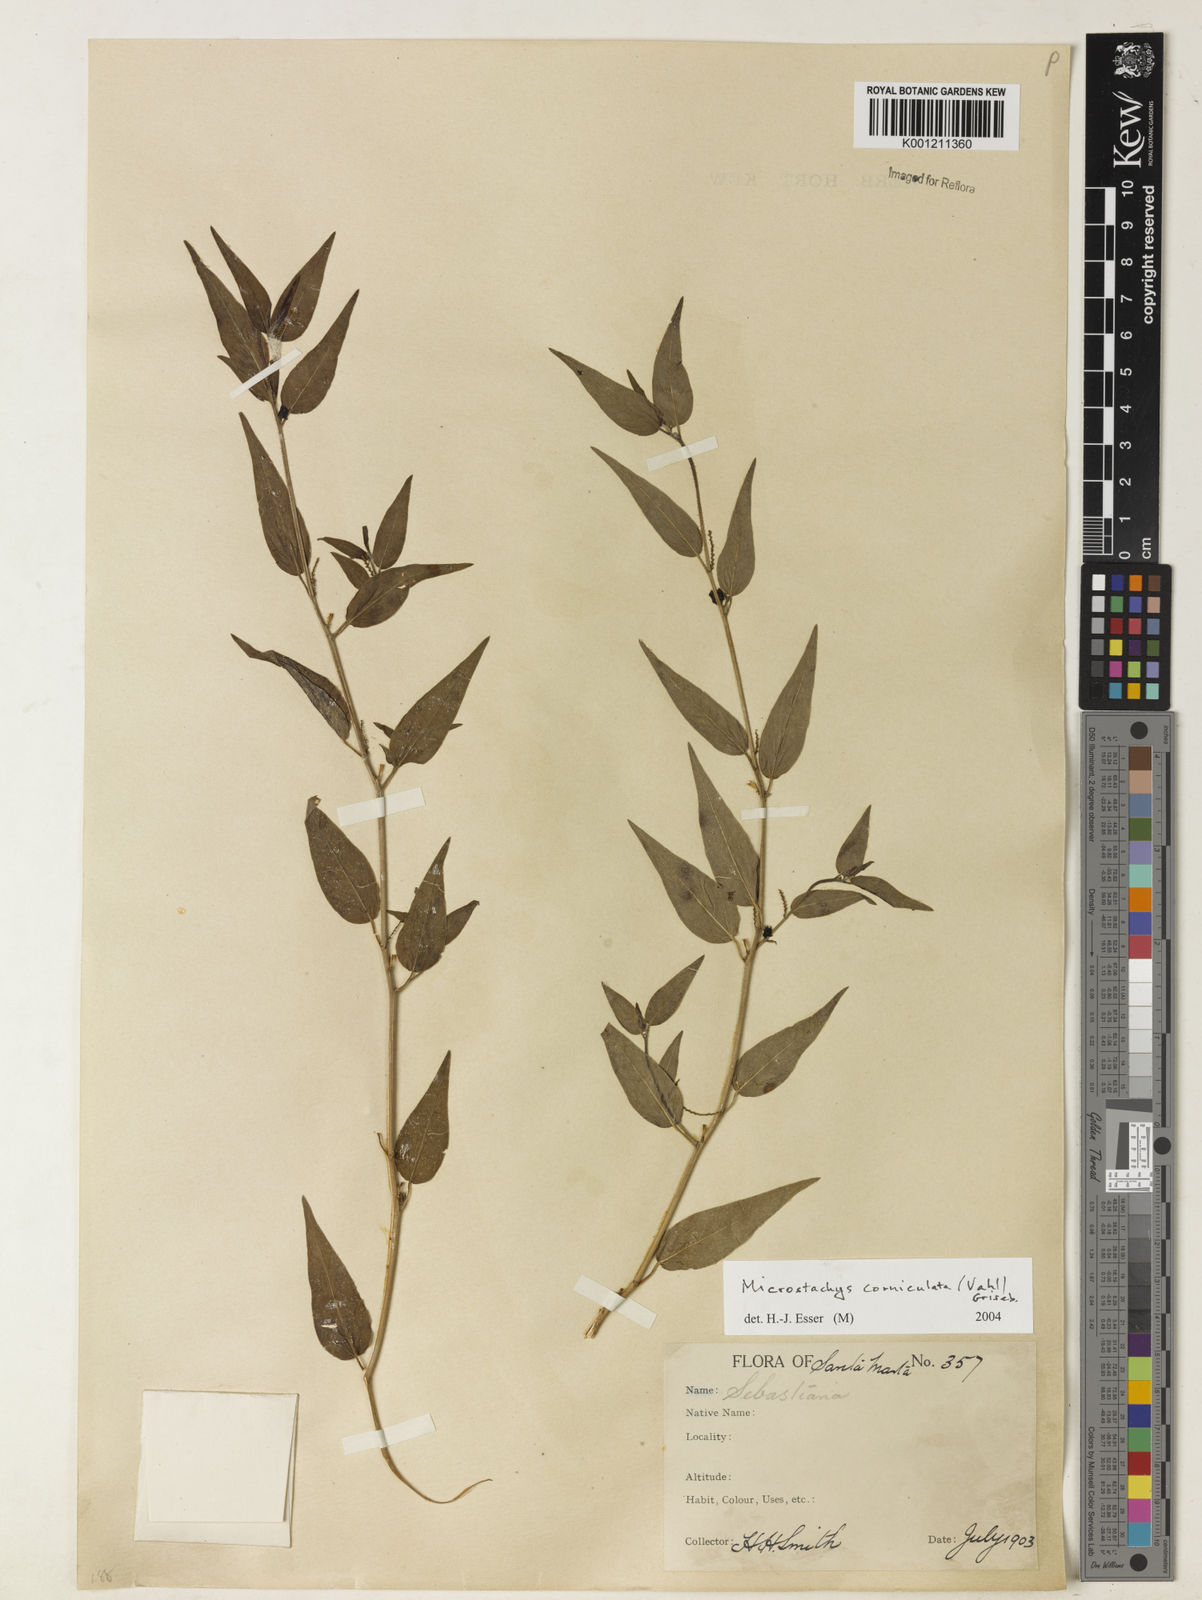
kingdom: Plantae
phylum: Tracheophyta
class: Magnoliopsida
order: Malpighiales
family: Euphorbiaceae
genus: Microstachys
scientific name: Microstachys corniculata
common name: Hato tejas
